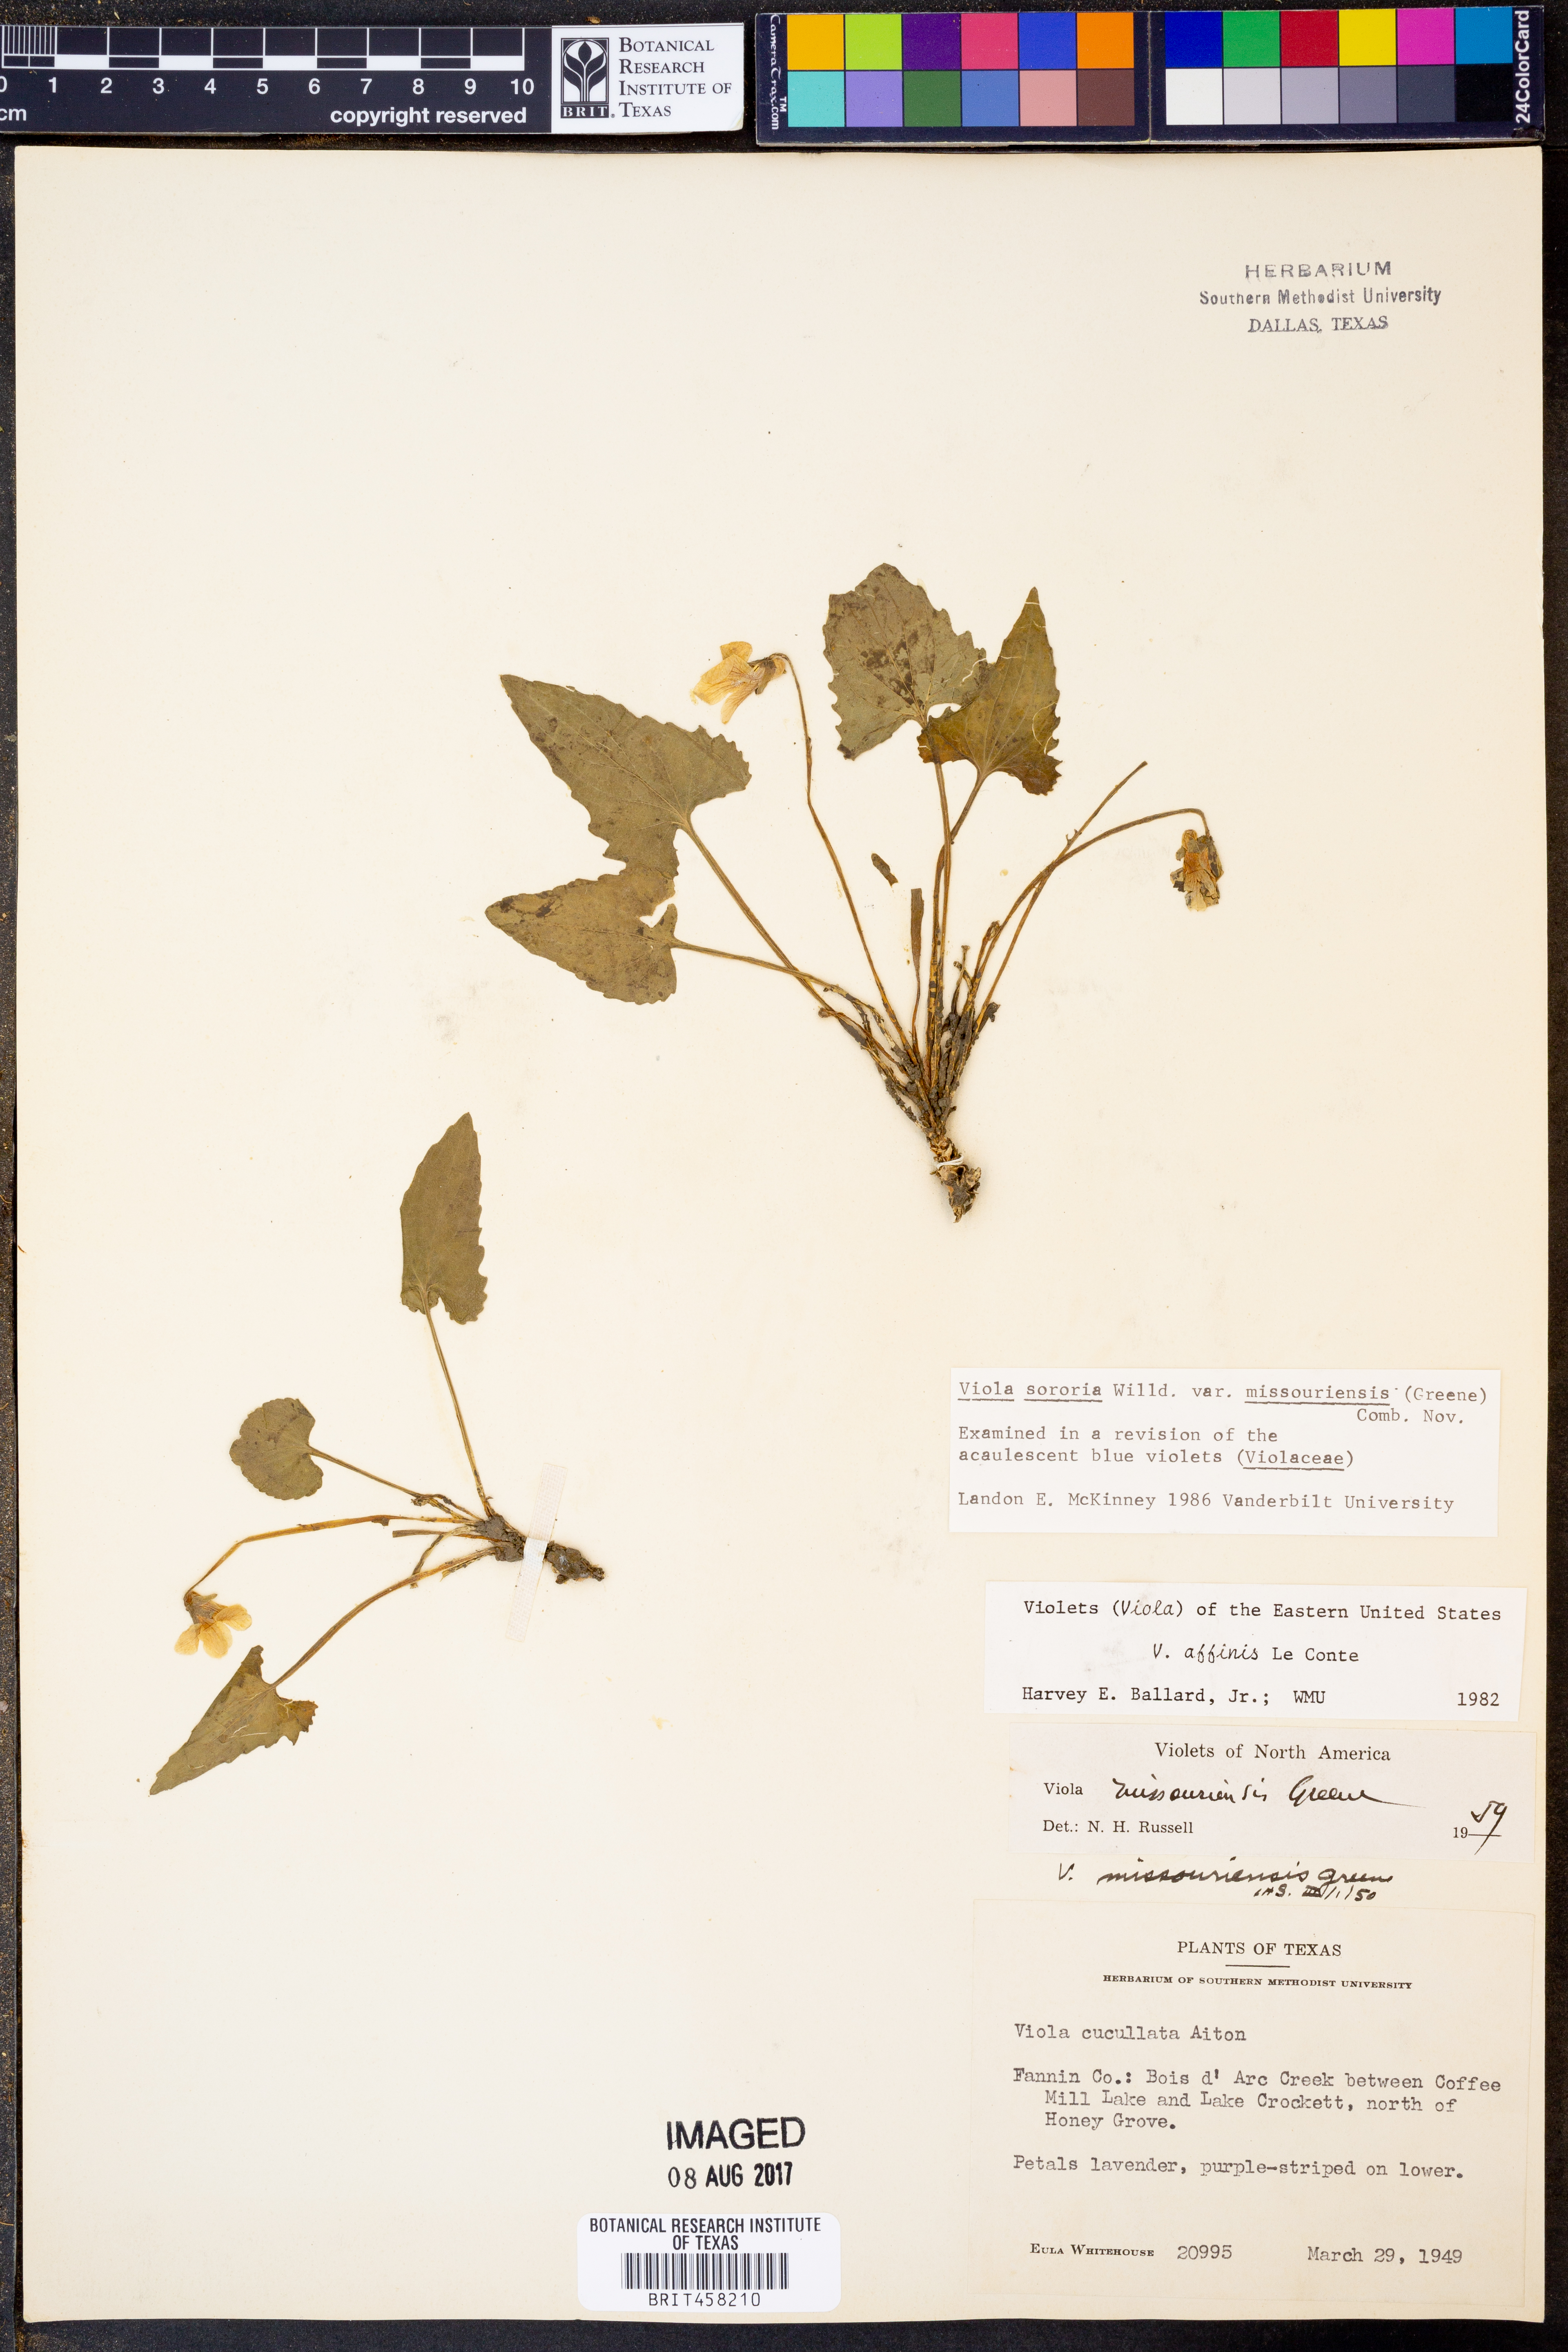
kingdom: Plantae
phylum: Tracheophyta
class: Magnoliopsida
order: Malpighiales
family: Violaceae
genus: Viola
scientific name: Viola missouriensis
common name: Missouri violet
